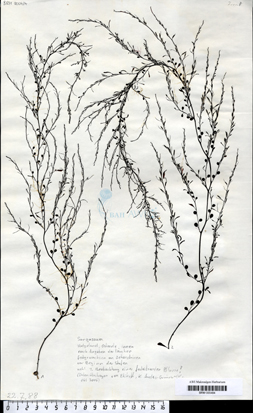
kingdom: Chromista
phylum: Ochrophyta
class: Phaeophyceae
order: Fucales
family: Sargassaceae
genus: Sargassum
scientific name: Sargassum
